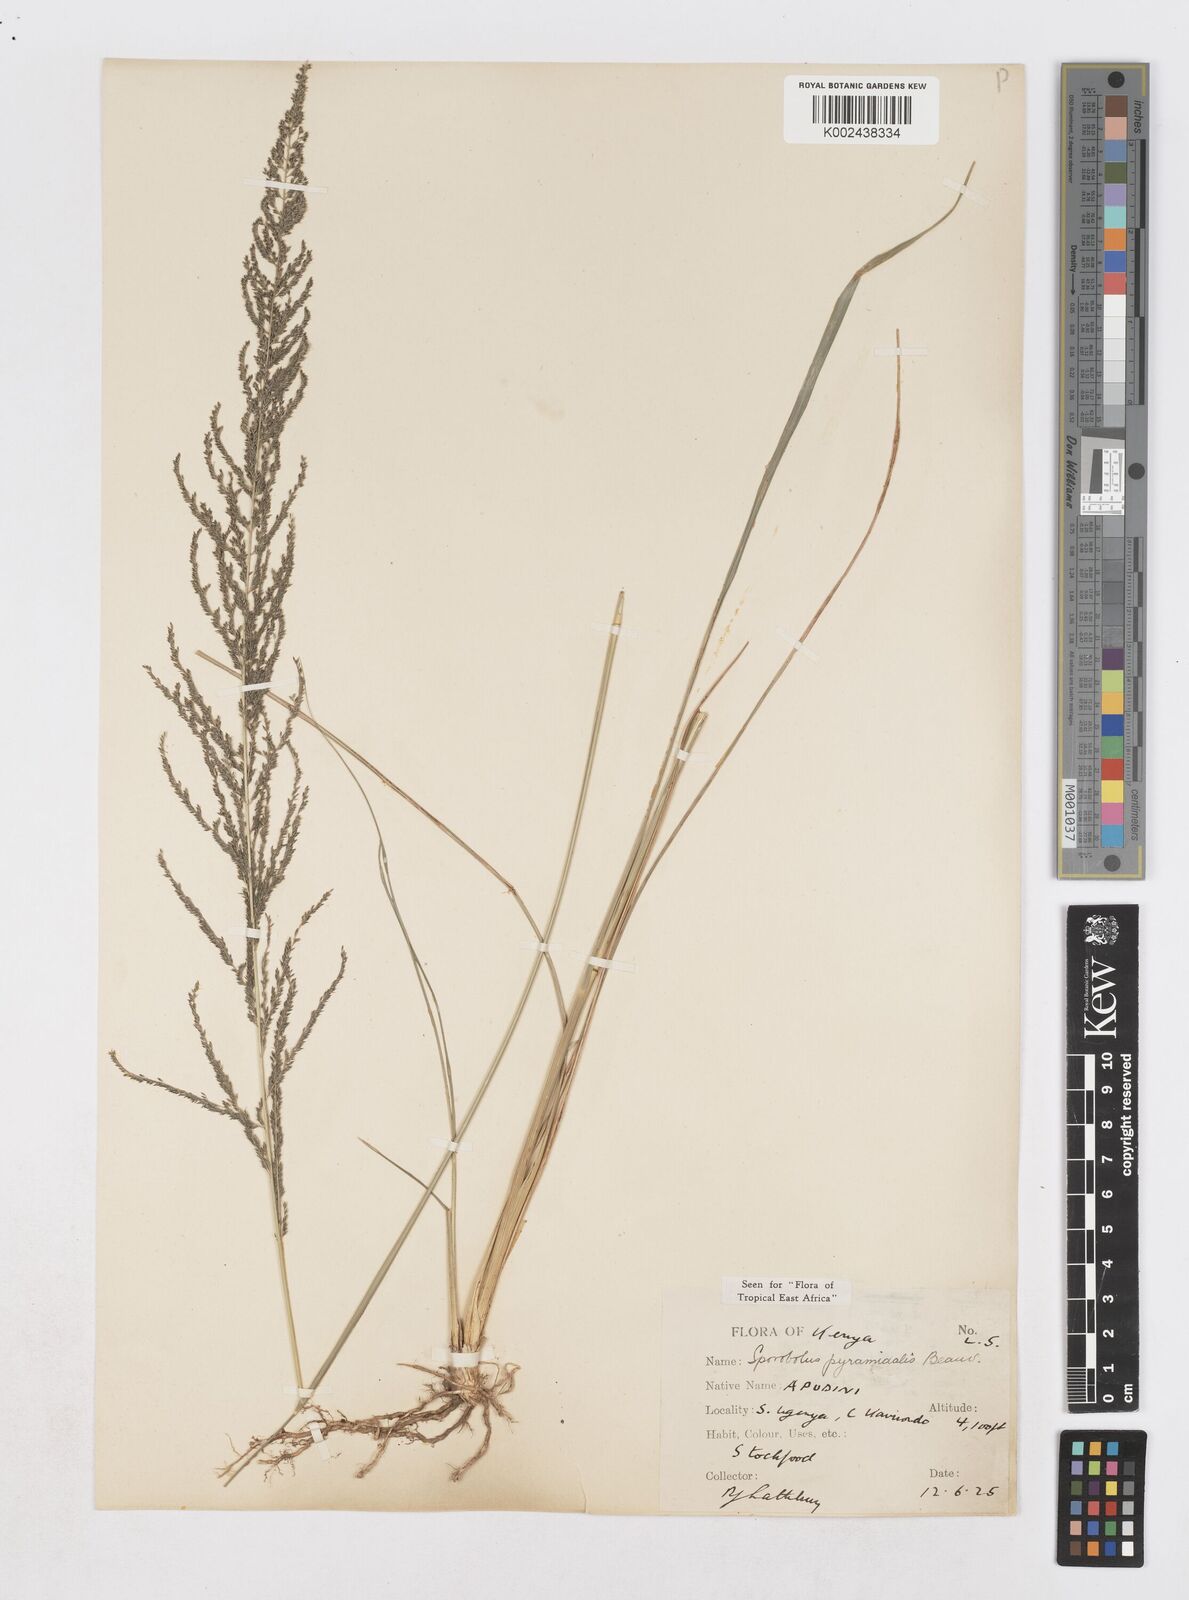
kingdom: Plantae
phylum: Tracheophyta
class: Liliopsida
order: Poales
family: Poaceae
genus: Sporobolus
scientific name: Sporobolus pyramidalis
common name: West indian dropseed
